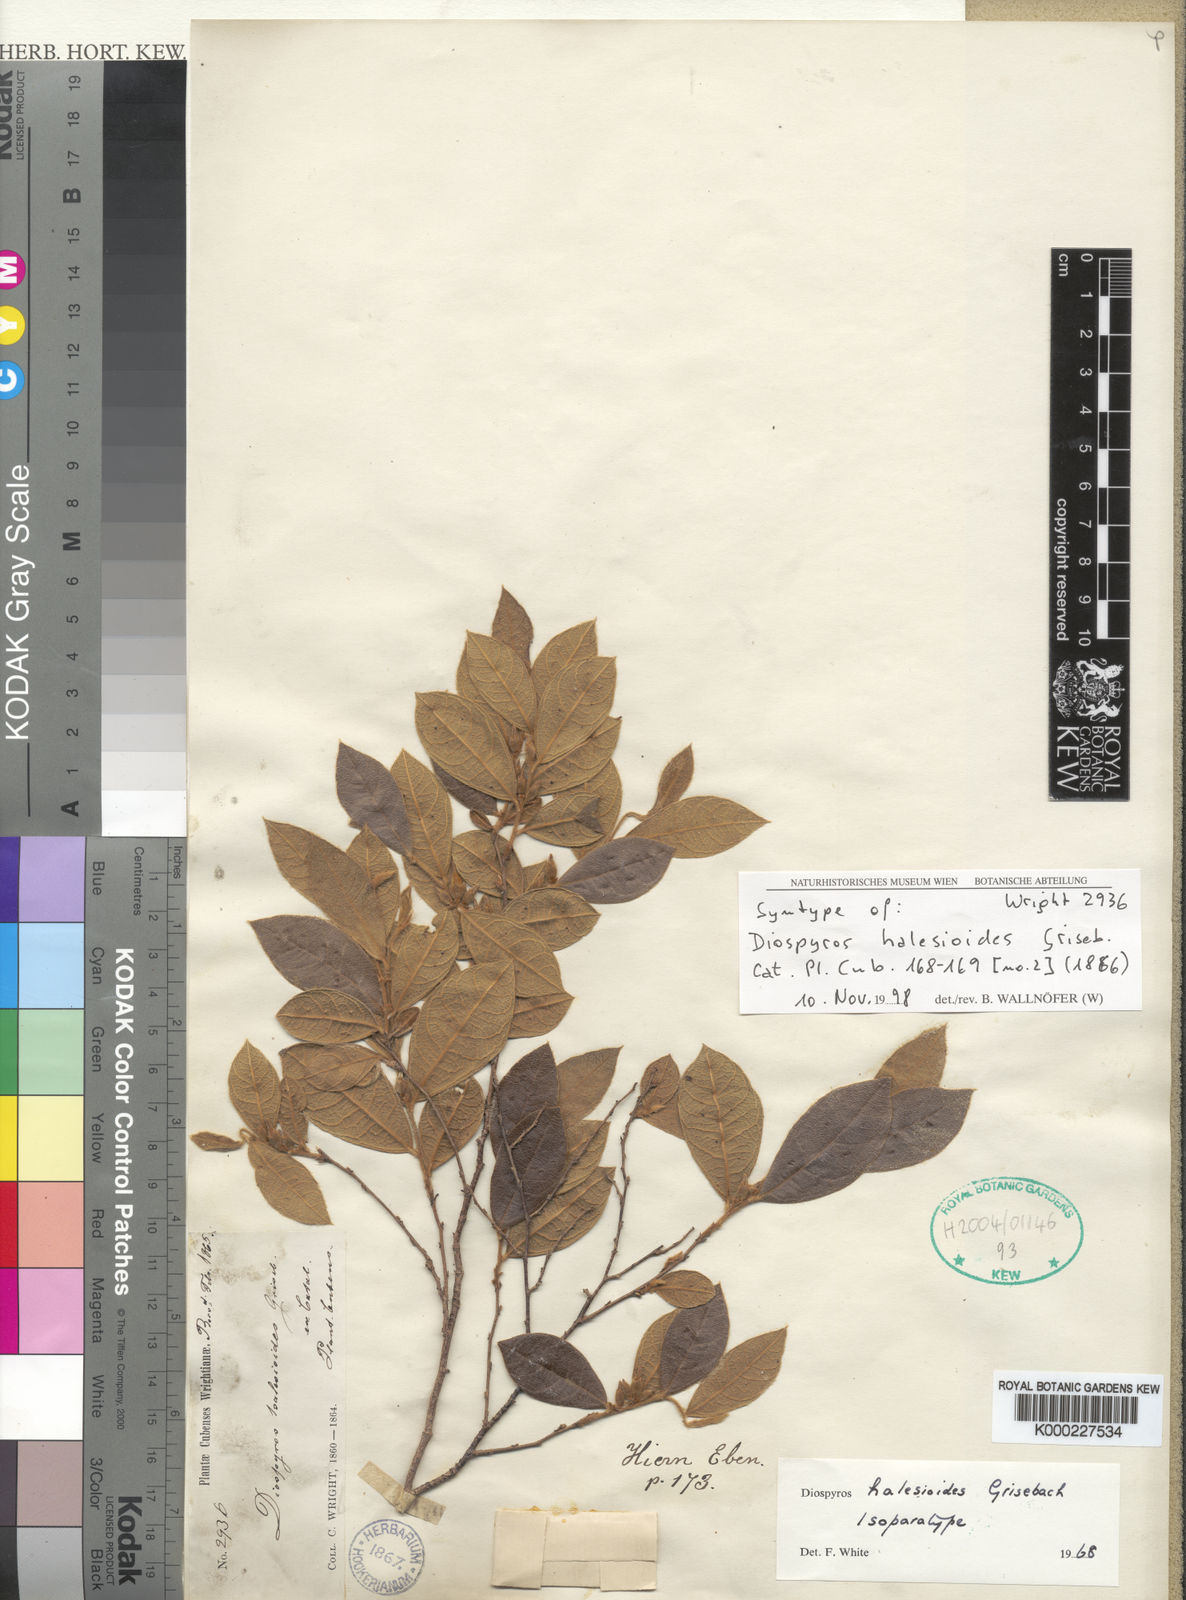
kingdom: Plantae
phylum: Tracheophyta
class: Magnoliopsida
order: Ericales
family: Ebenaceae
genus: Diospyros
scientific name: Diospyros halesioides
